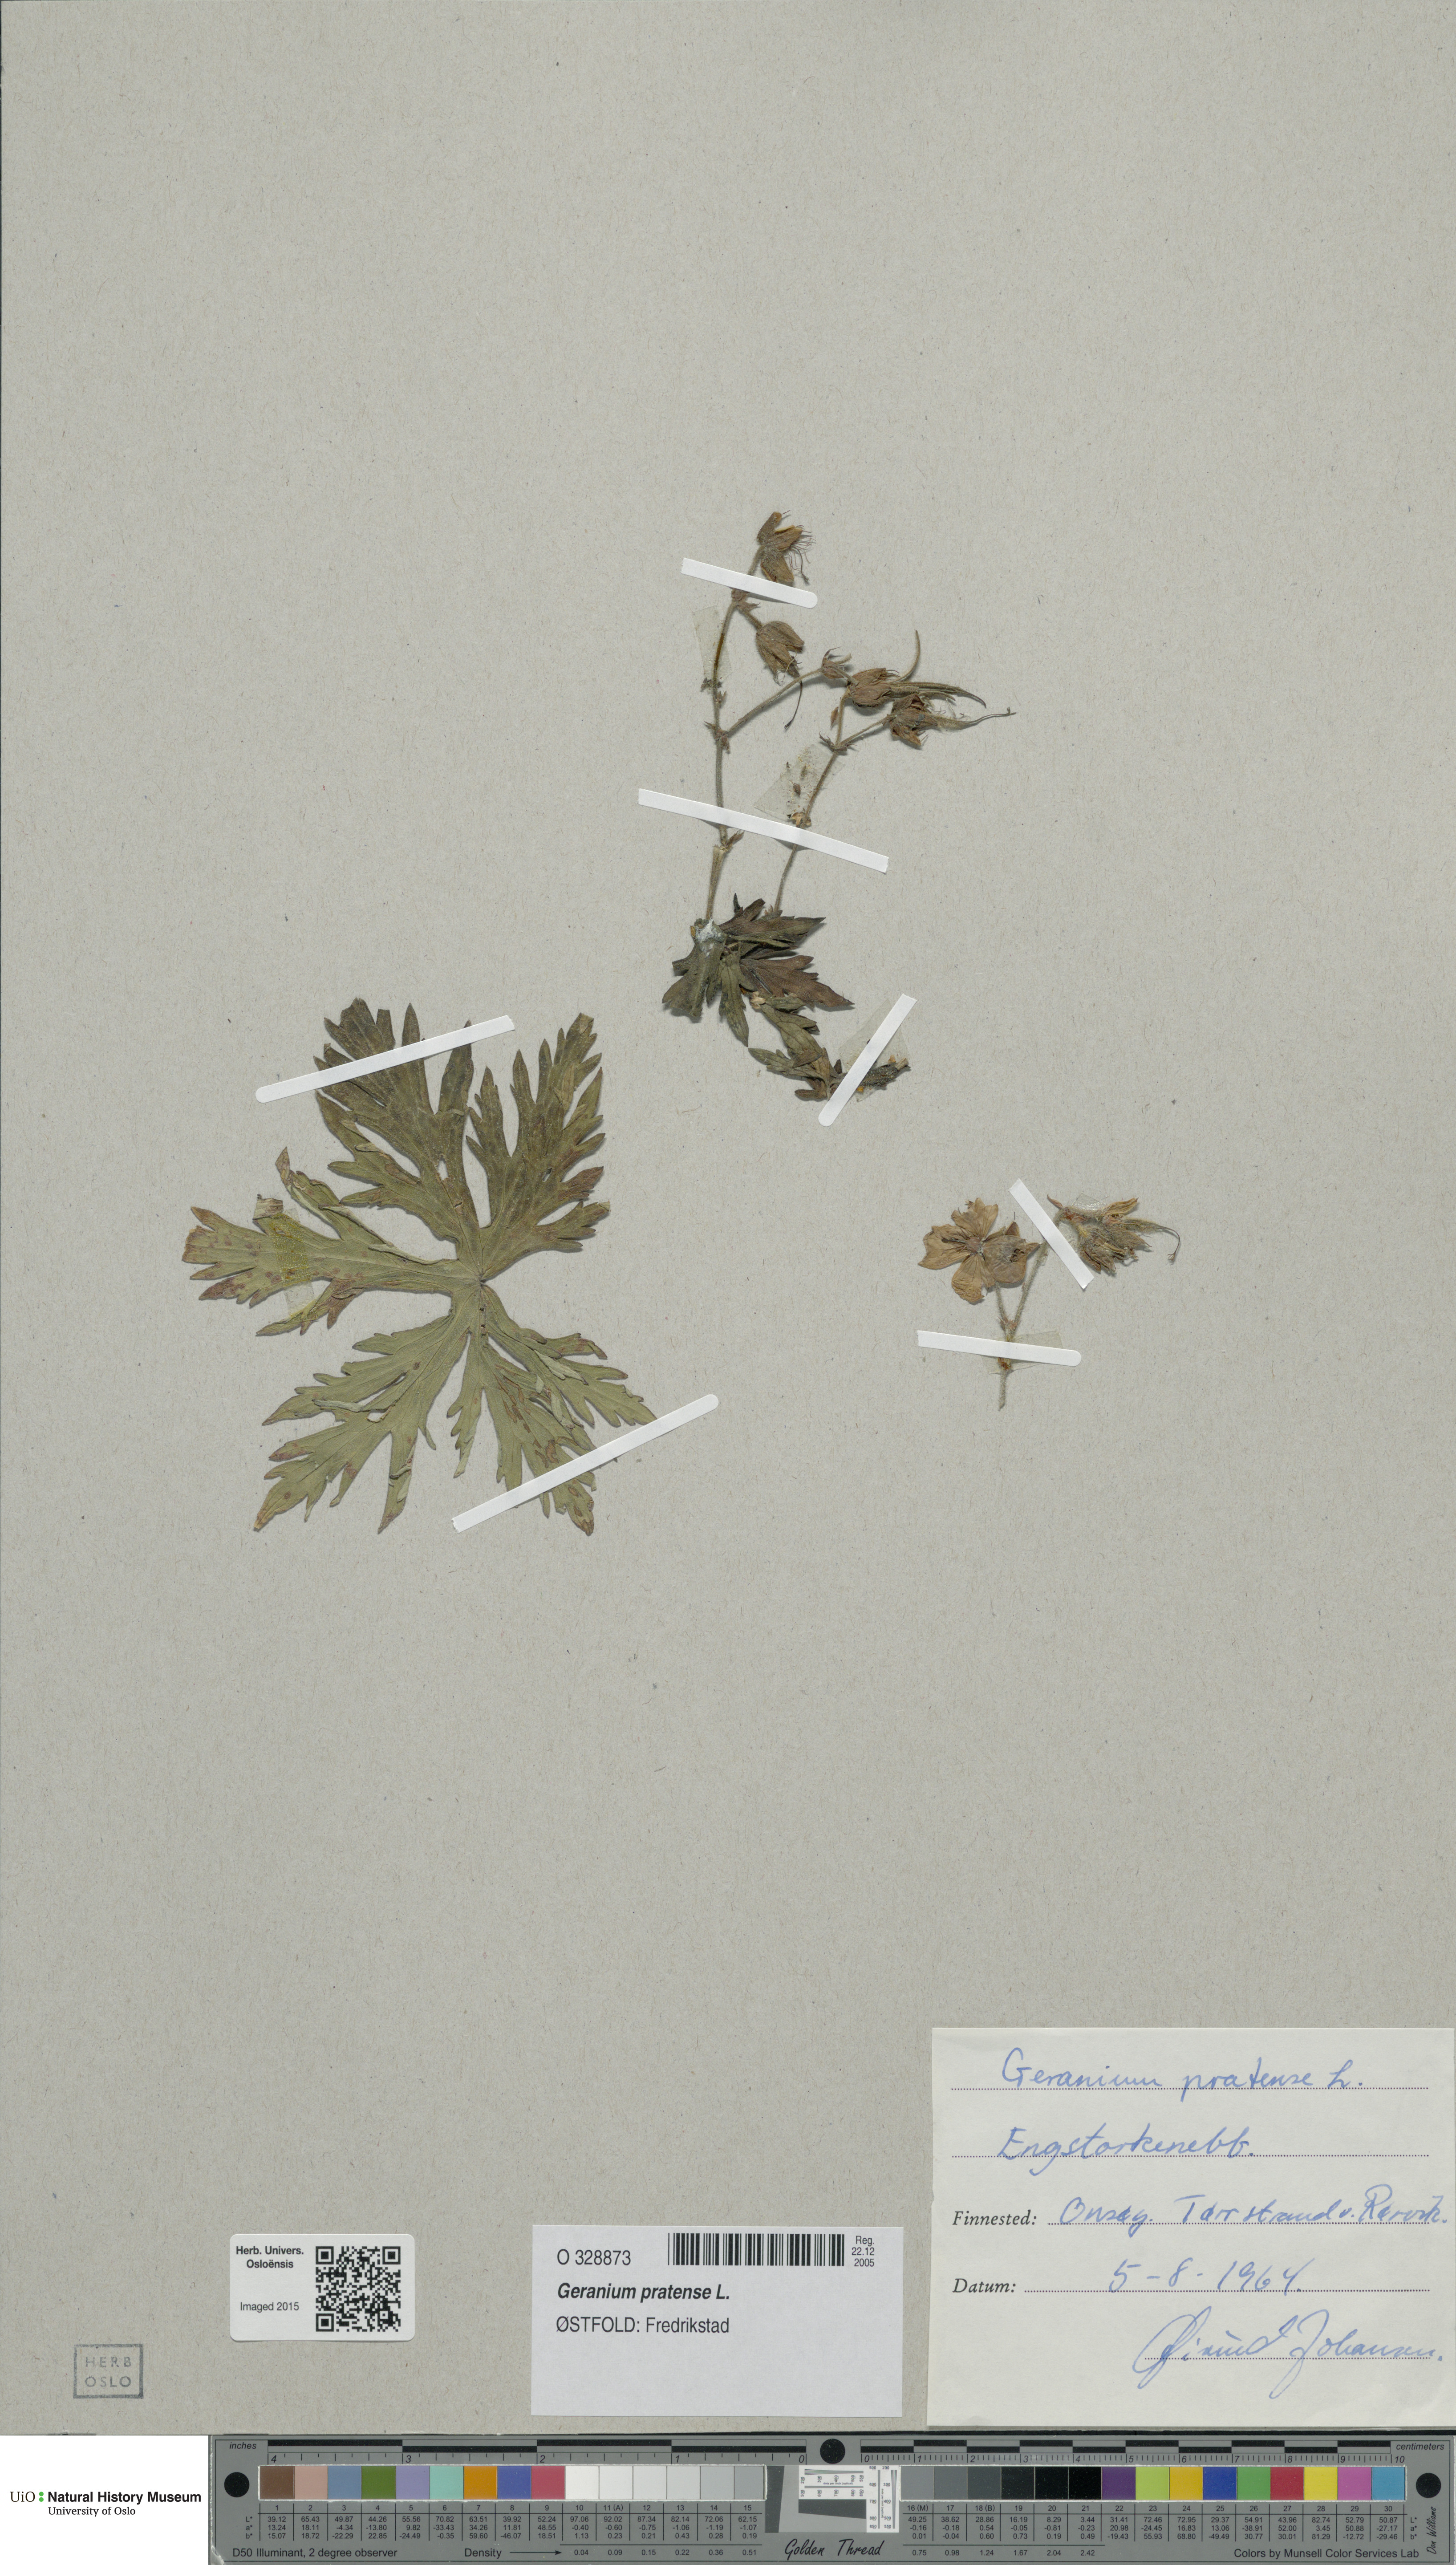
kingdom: Plantae
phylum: Tracheophyta
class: Magnoliopsida
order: Geraniales
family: Geraniaceae
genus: Geranium
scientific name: Geranium pratense
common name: Meadow crane's-bill
